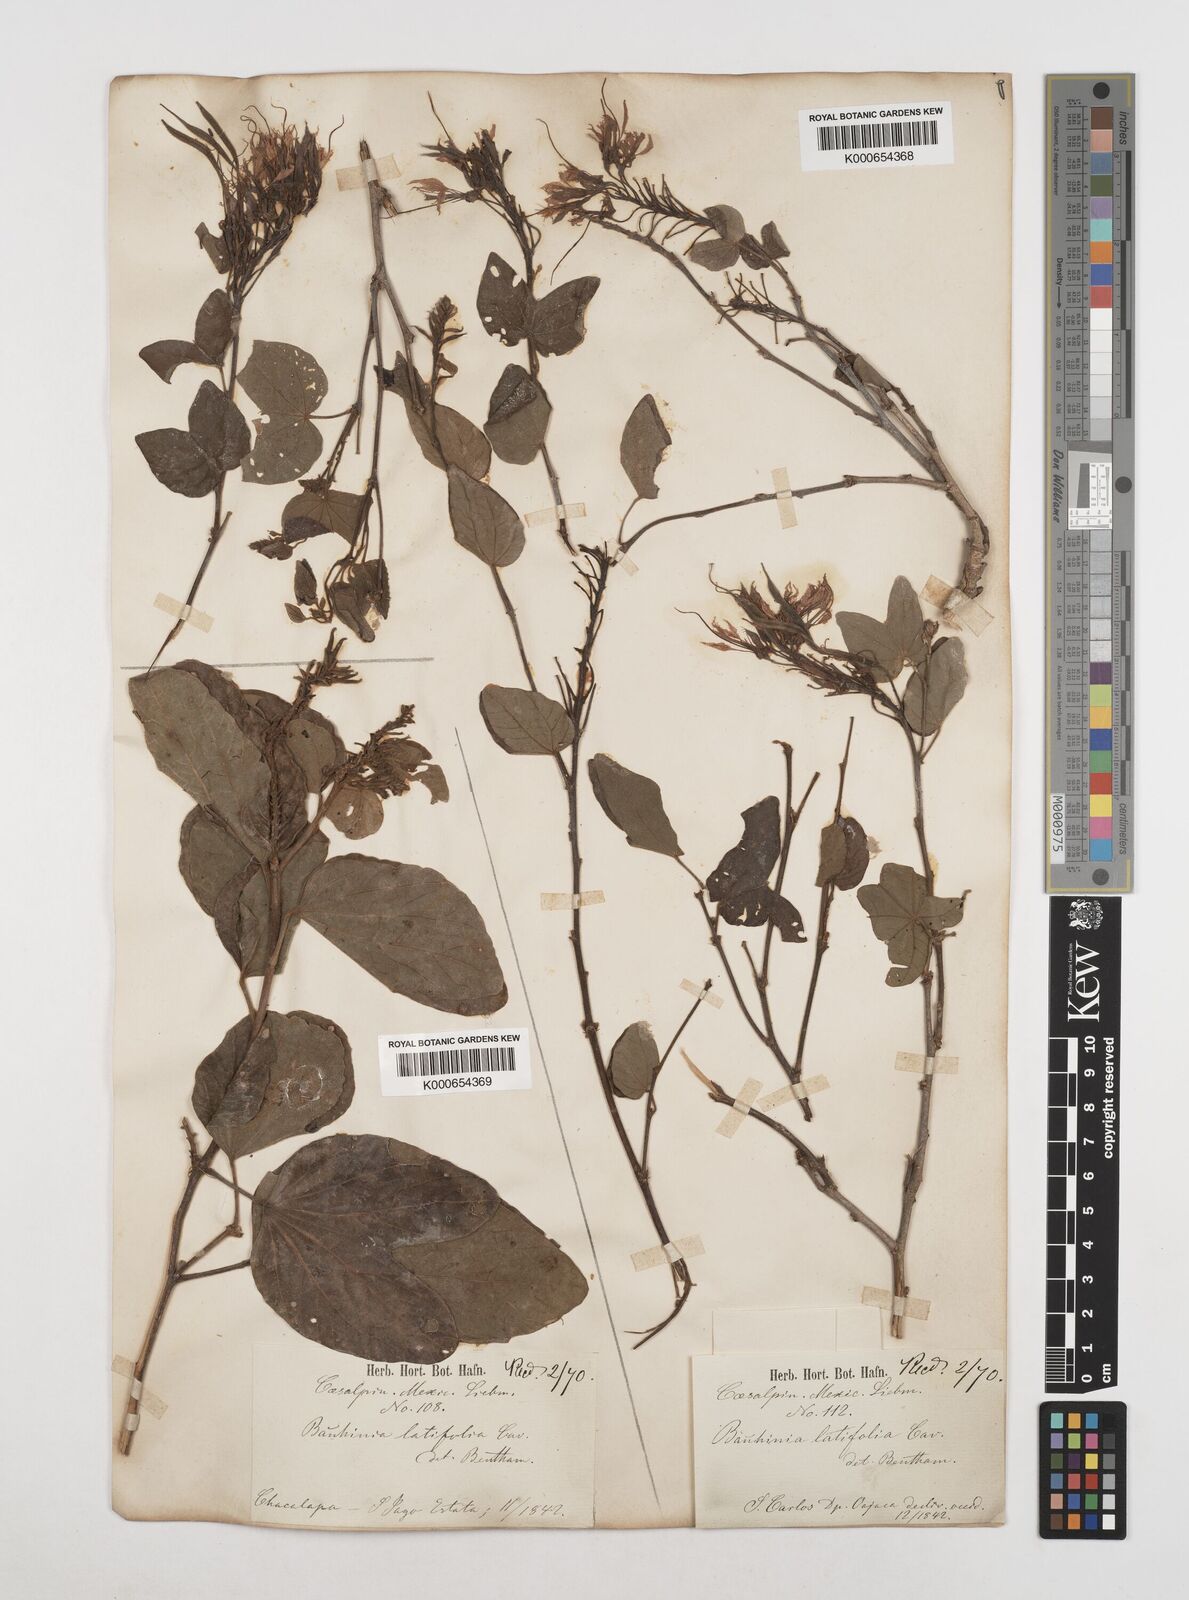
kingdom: Plantae
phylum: Tracheophyta
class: Magnoliopsida
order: Fabales
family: Fabaceae
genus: Bauhinia
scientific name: Bauhinia divaricata
